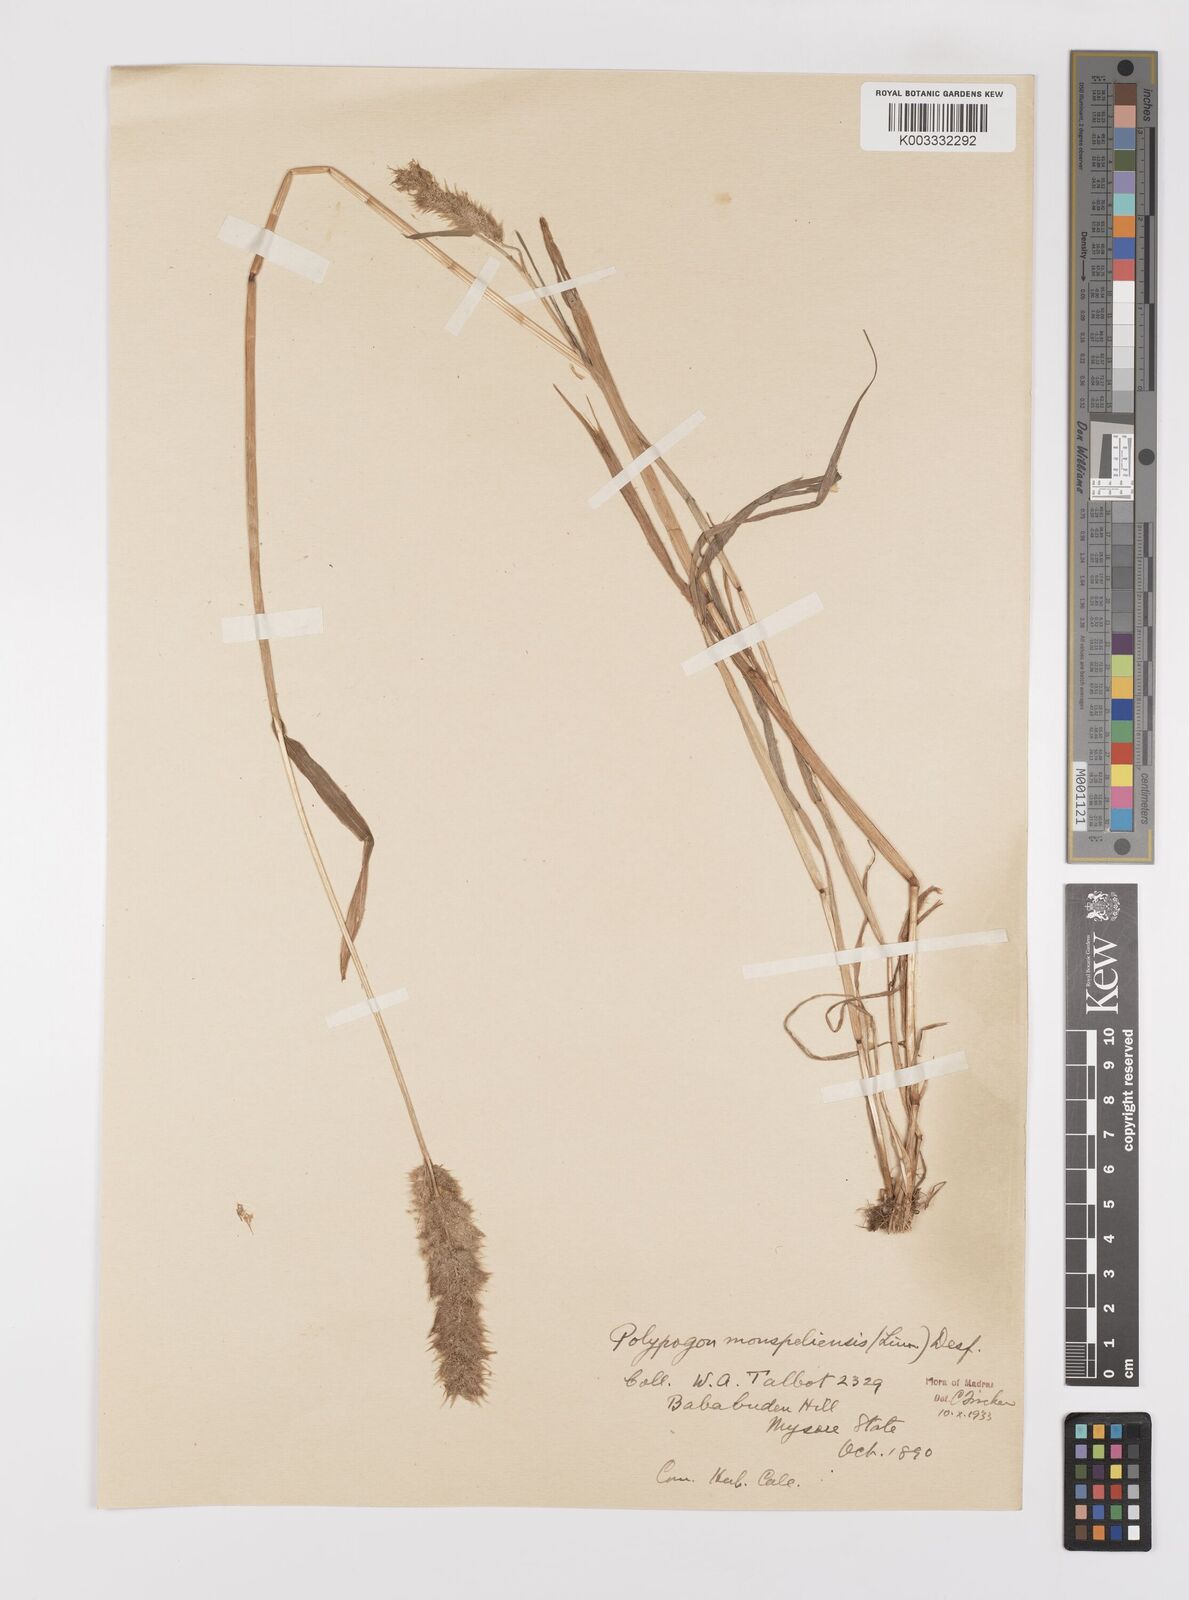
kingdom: Plantae
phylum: Tracheophyta
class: Liliopsida
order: Poales
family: Poaceae
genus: Polypogon
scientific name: Polypogon monspeliensis
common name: Annual rabbitsfoot grass
